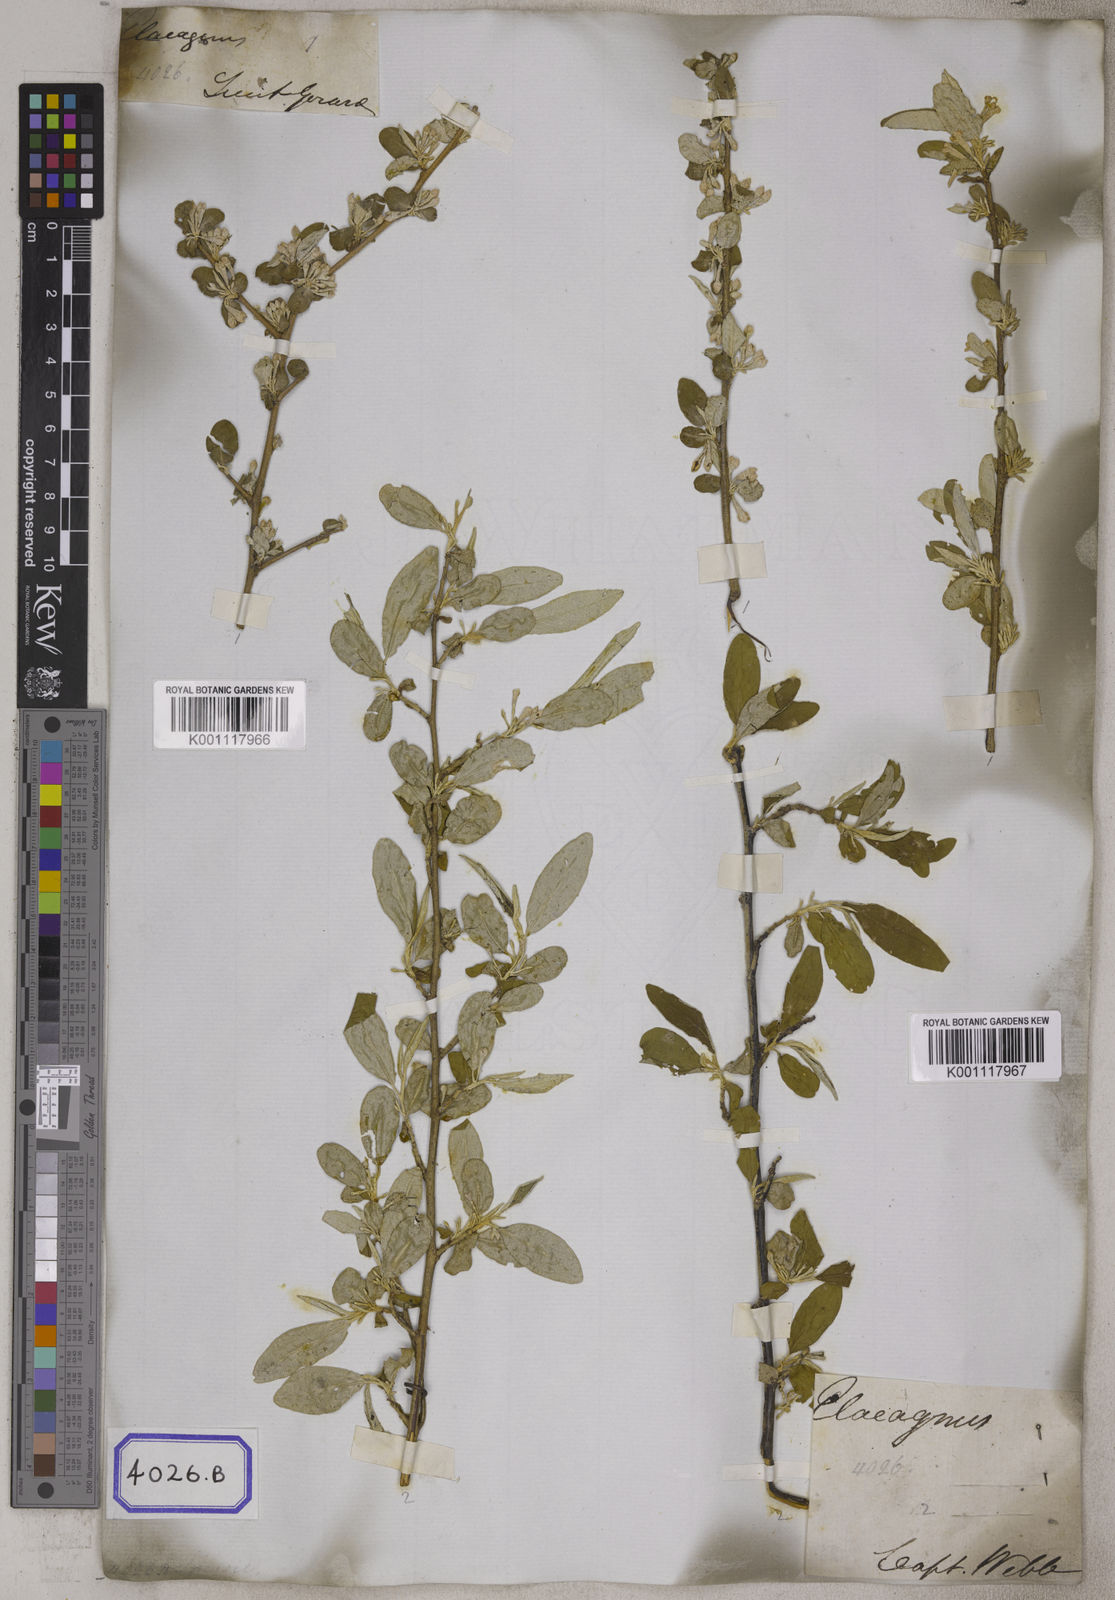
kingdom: Plantae
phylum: Tracheophyta
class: Magnoliopsida
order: Rosales
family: Elaeagnaceae
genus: Elaeagnus
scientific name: Elaeagnus
